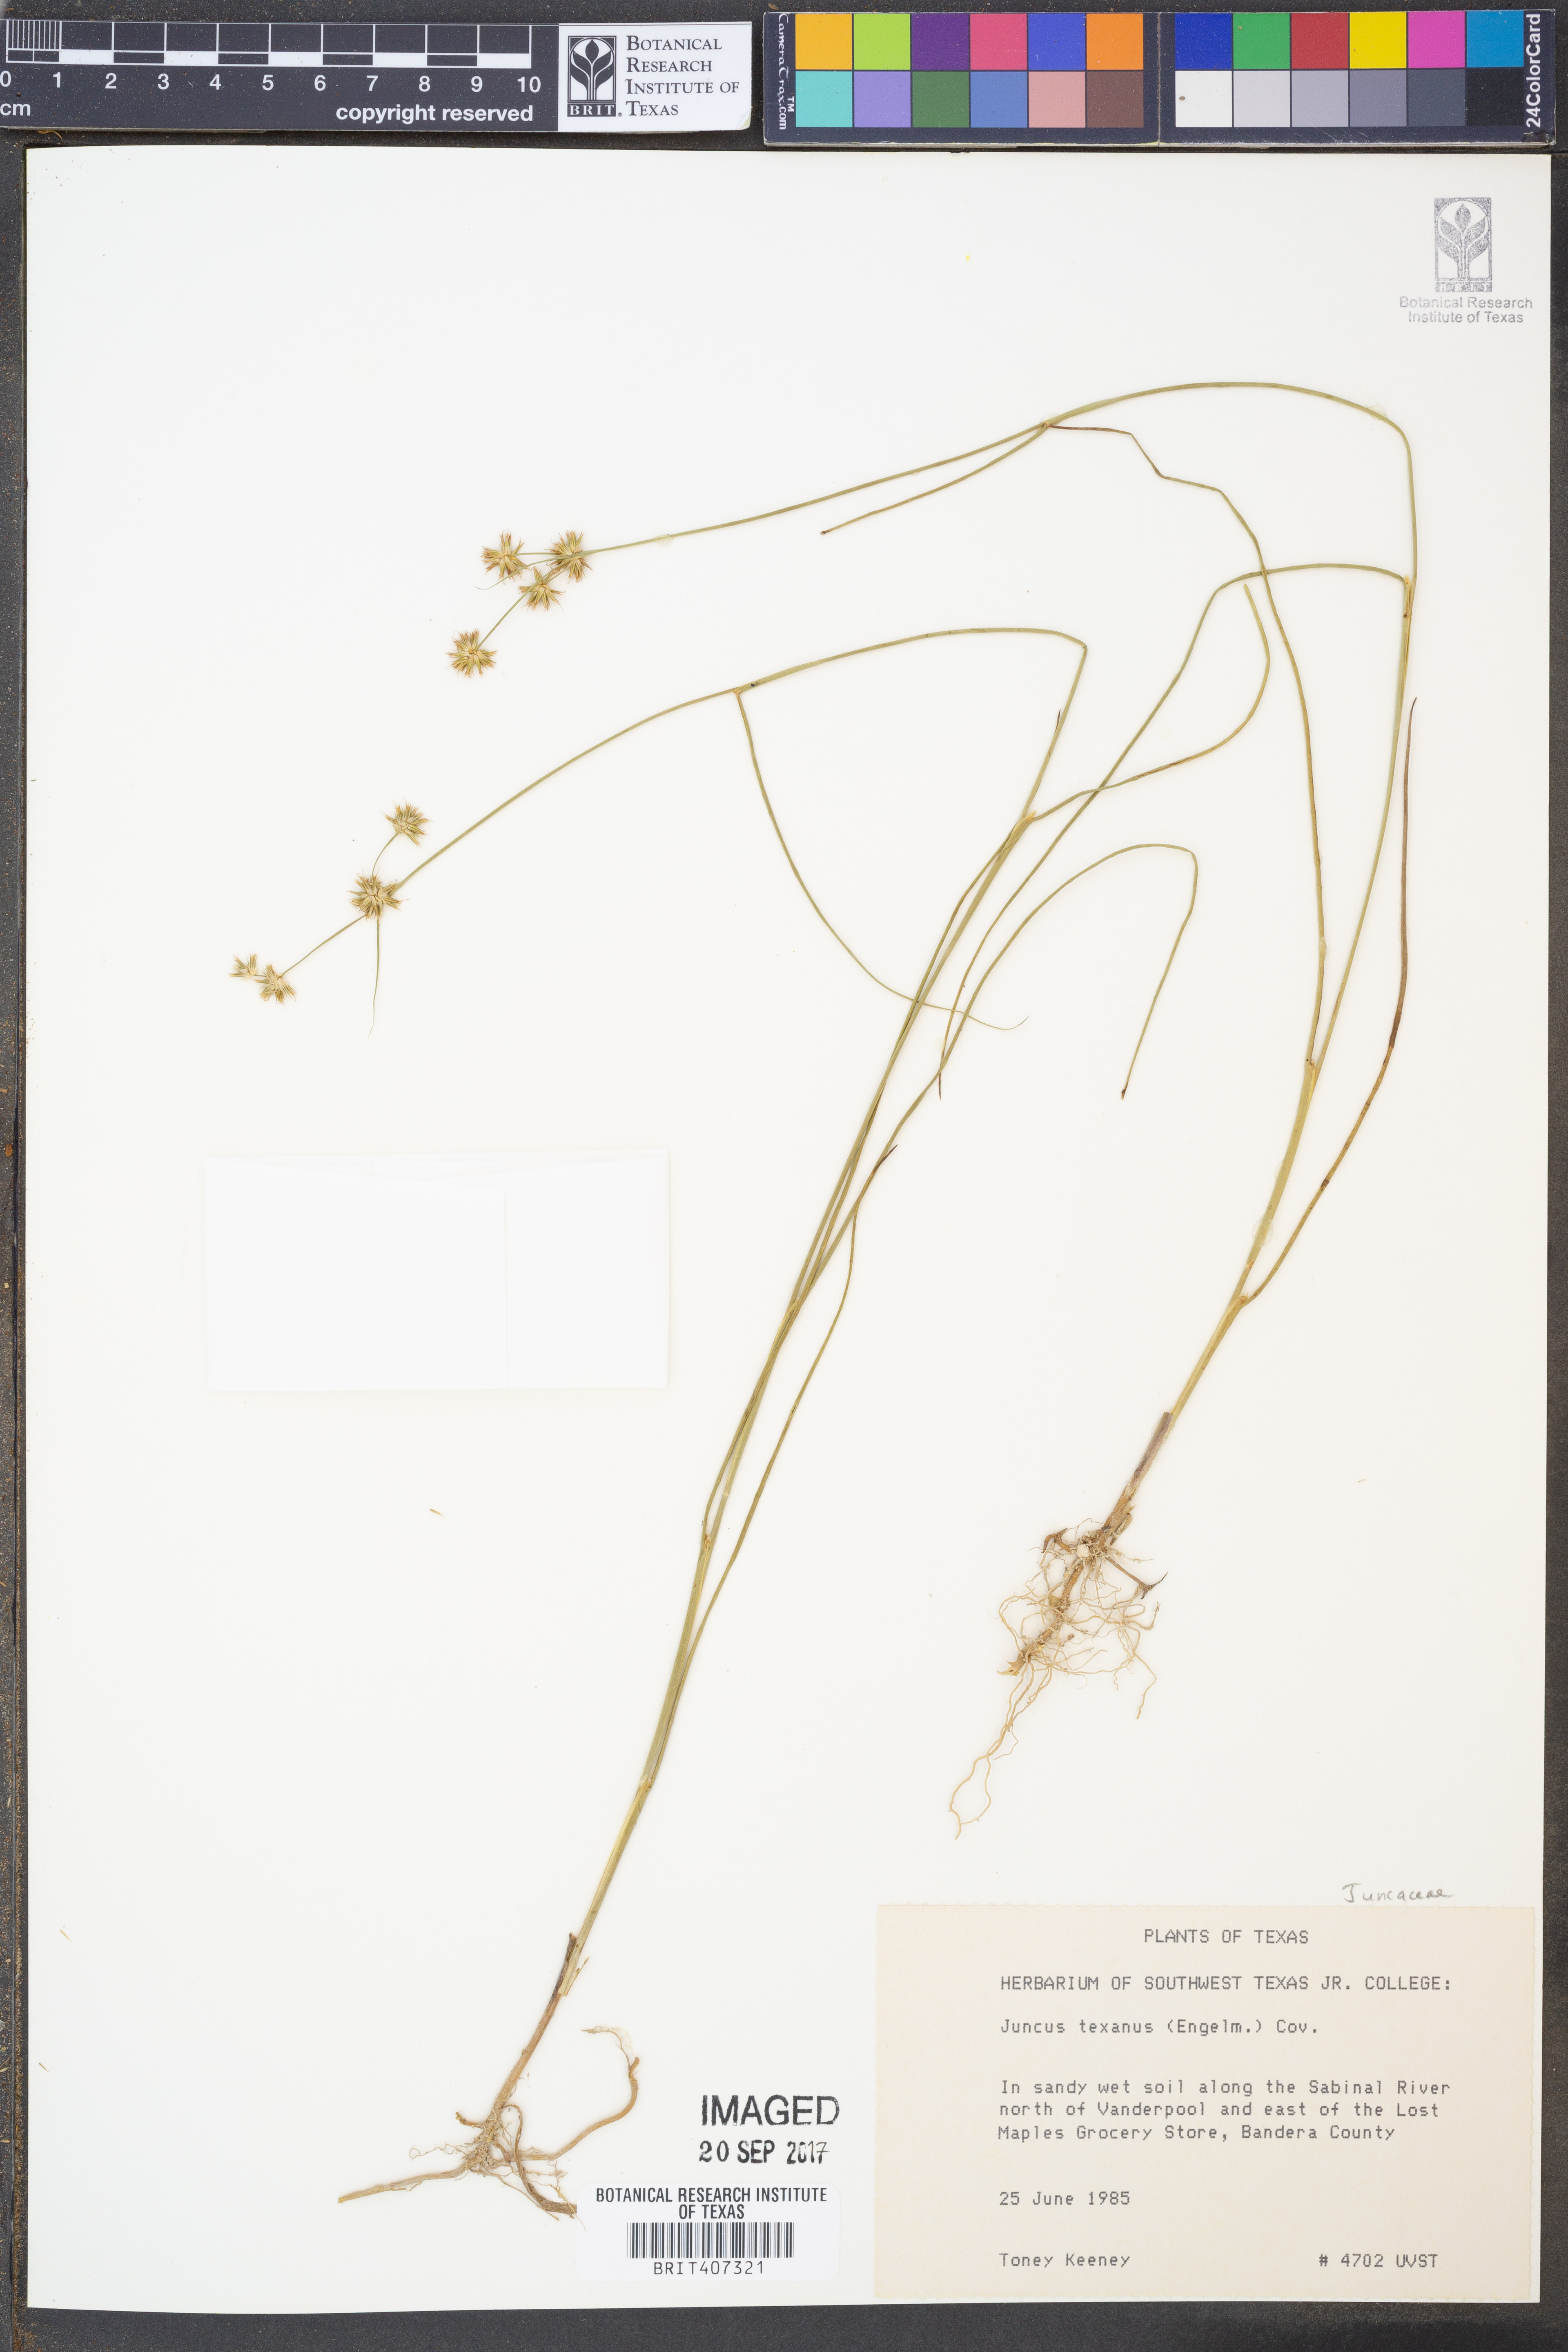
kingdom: Plantae
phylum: Tracheophyta
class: Liliopsida
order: Poales
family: Juncaceae
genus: Juncus
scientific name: Juncus texanus
